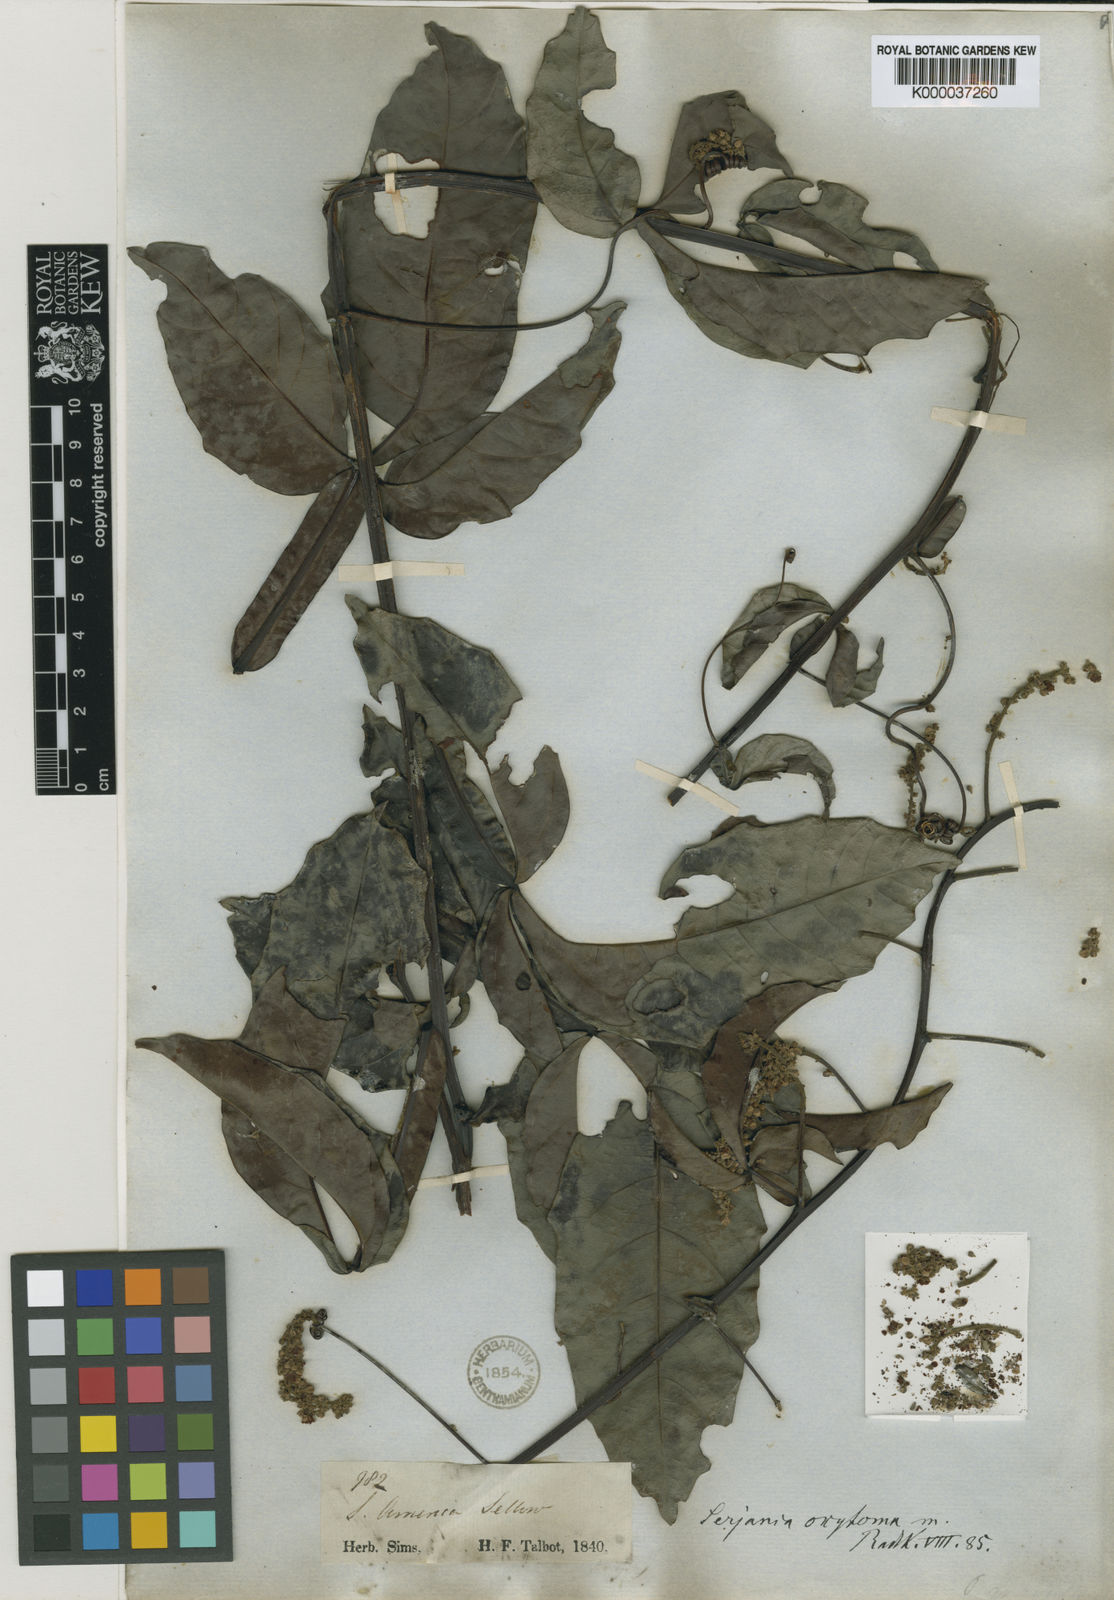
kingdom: Plantae
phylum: Tracheophyta
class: Magnoliopsida
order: Sapindales
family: Sapindaceae
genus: Serjania
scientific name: Serjania oxytoma
